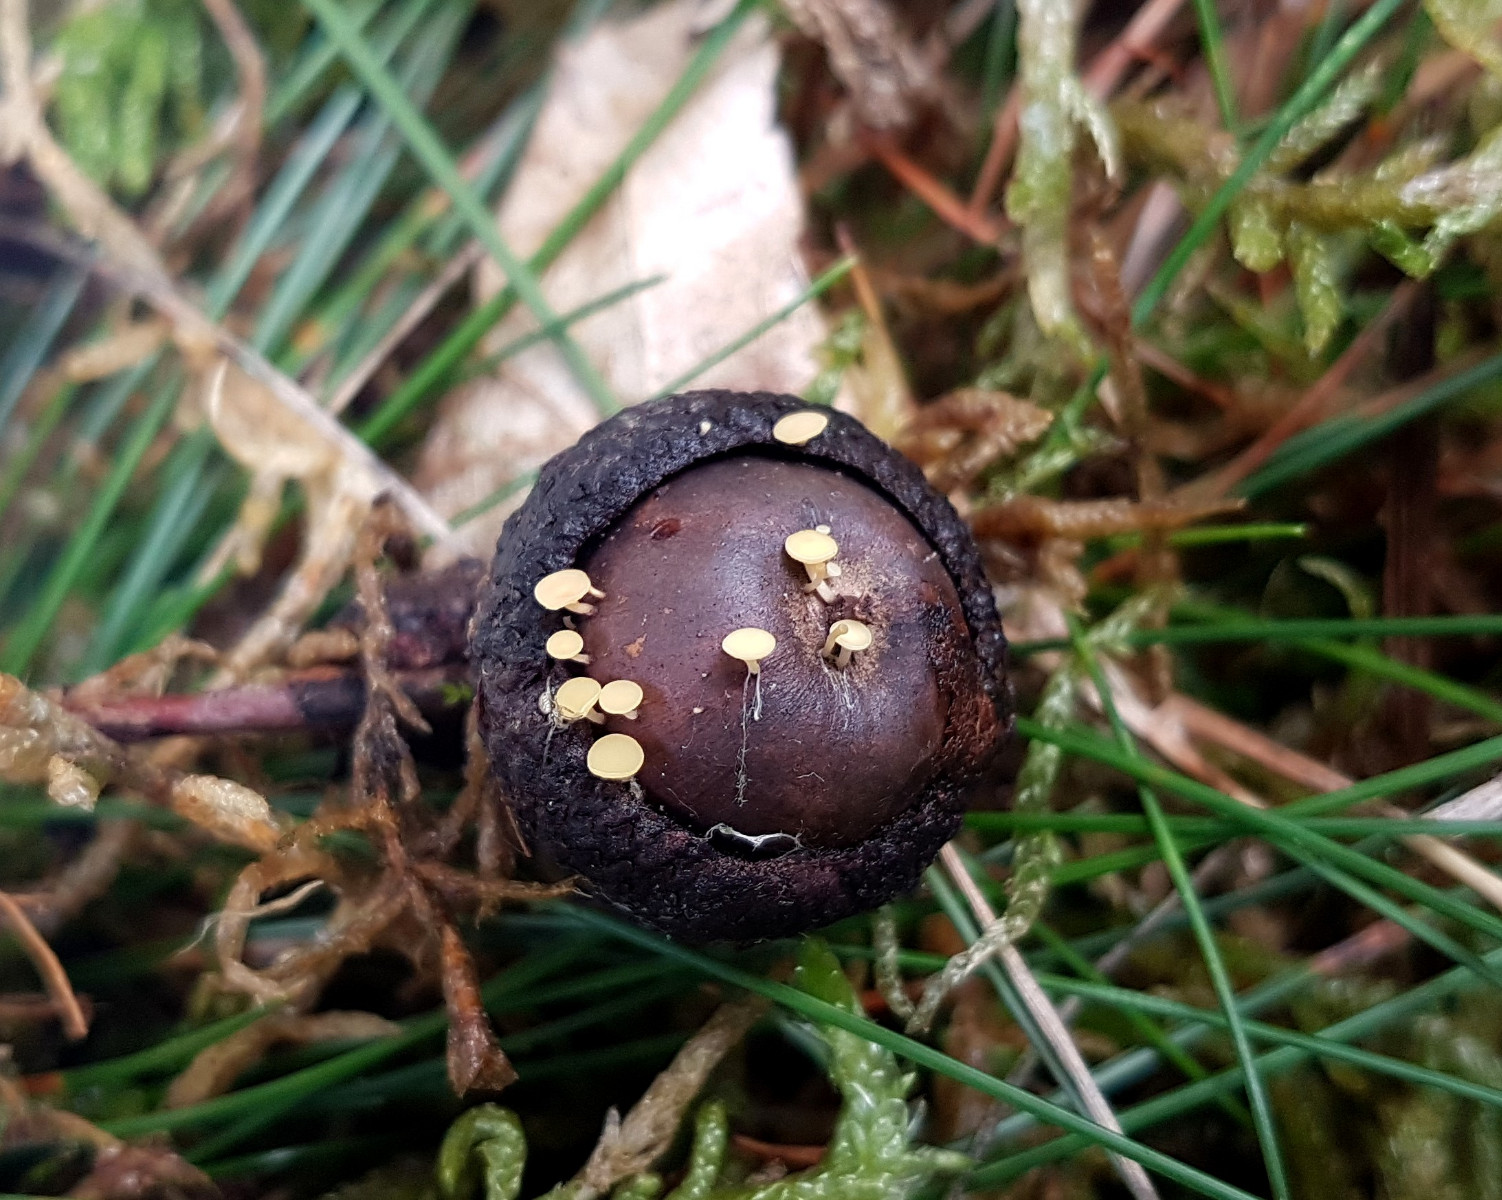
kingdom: Fungi
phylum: Ascomycota
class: Leotiomycetes
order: Helotiales
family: Helotiaceae
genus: Hymenoscyphus
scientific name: Hymenoscyphus fructigenus
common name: frugt-stilkskive
